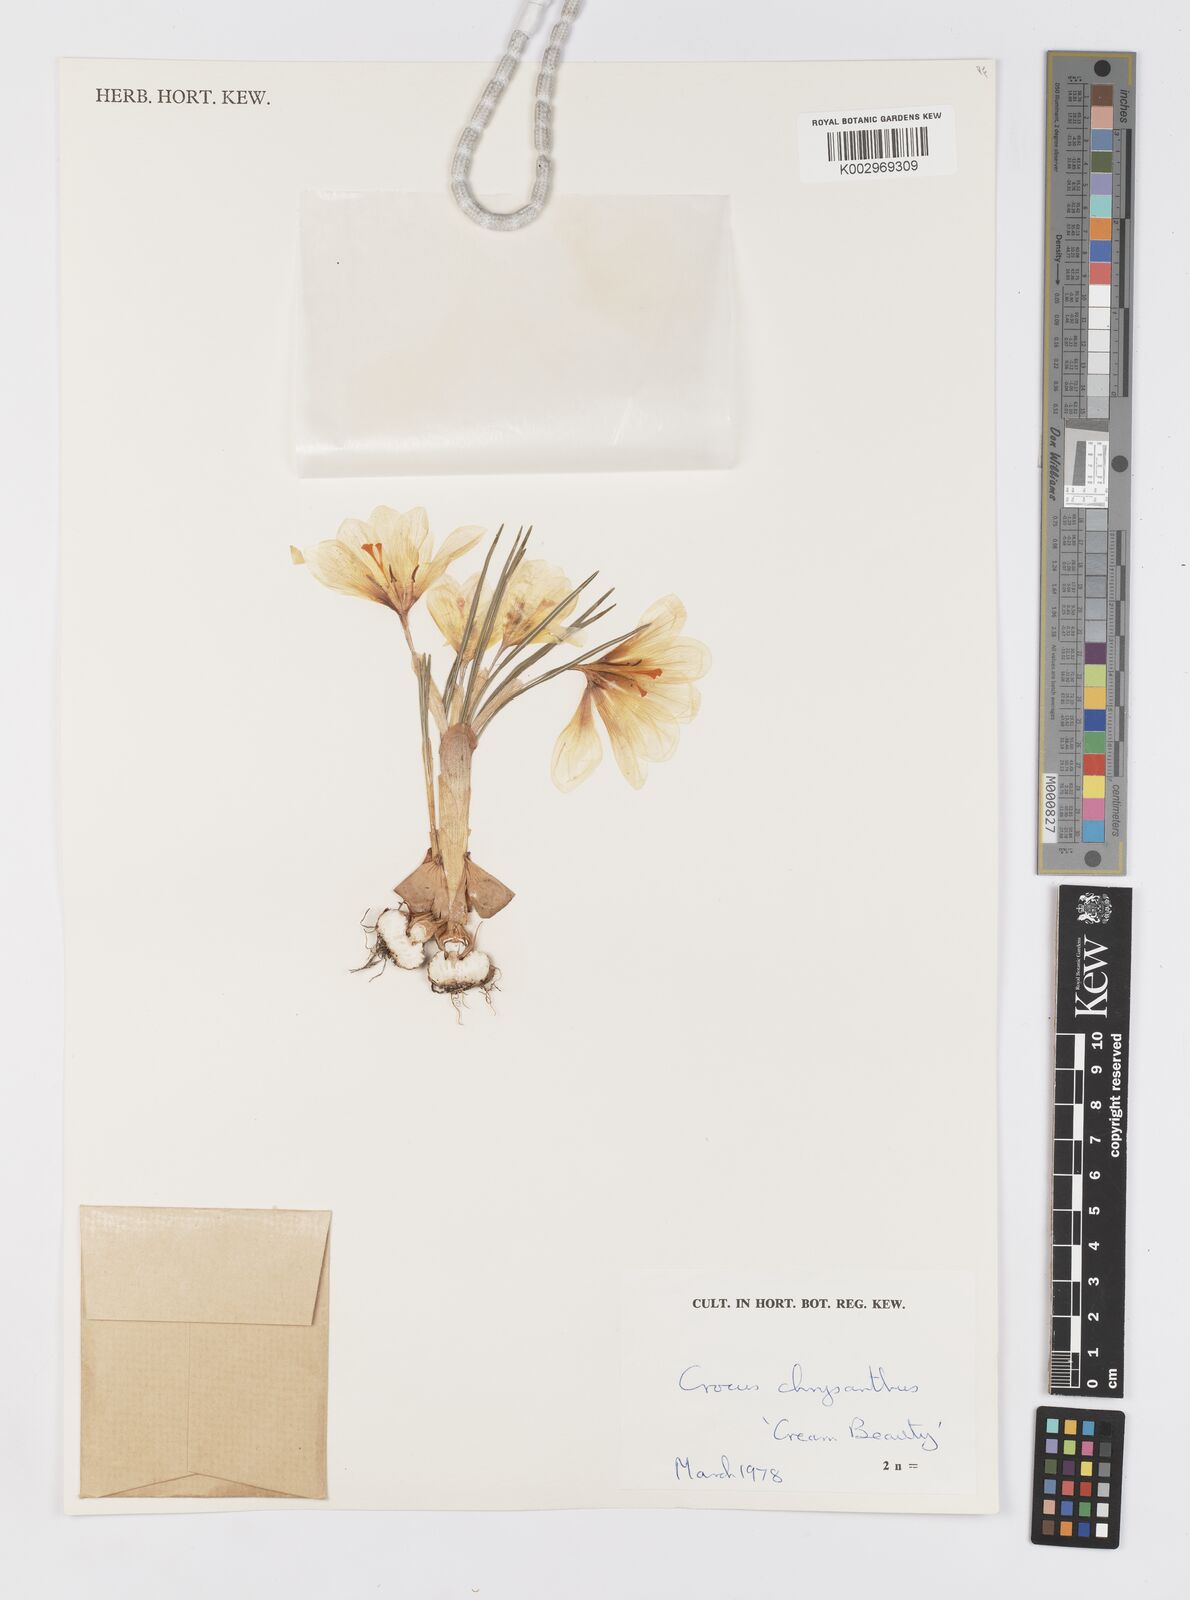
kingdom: Plantae
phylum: Tracheophyta
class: Liliopsida
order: Asparagales
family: Iridaceae
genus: Crocus
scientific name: Crocus chrysanthus
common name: Golden crocus
